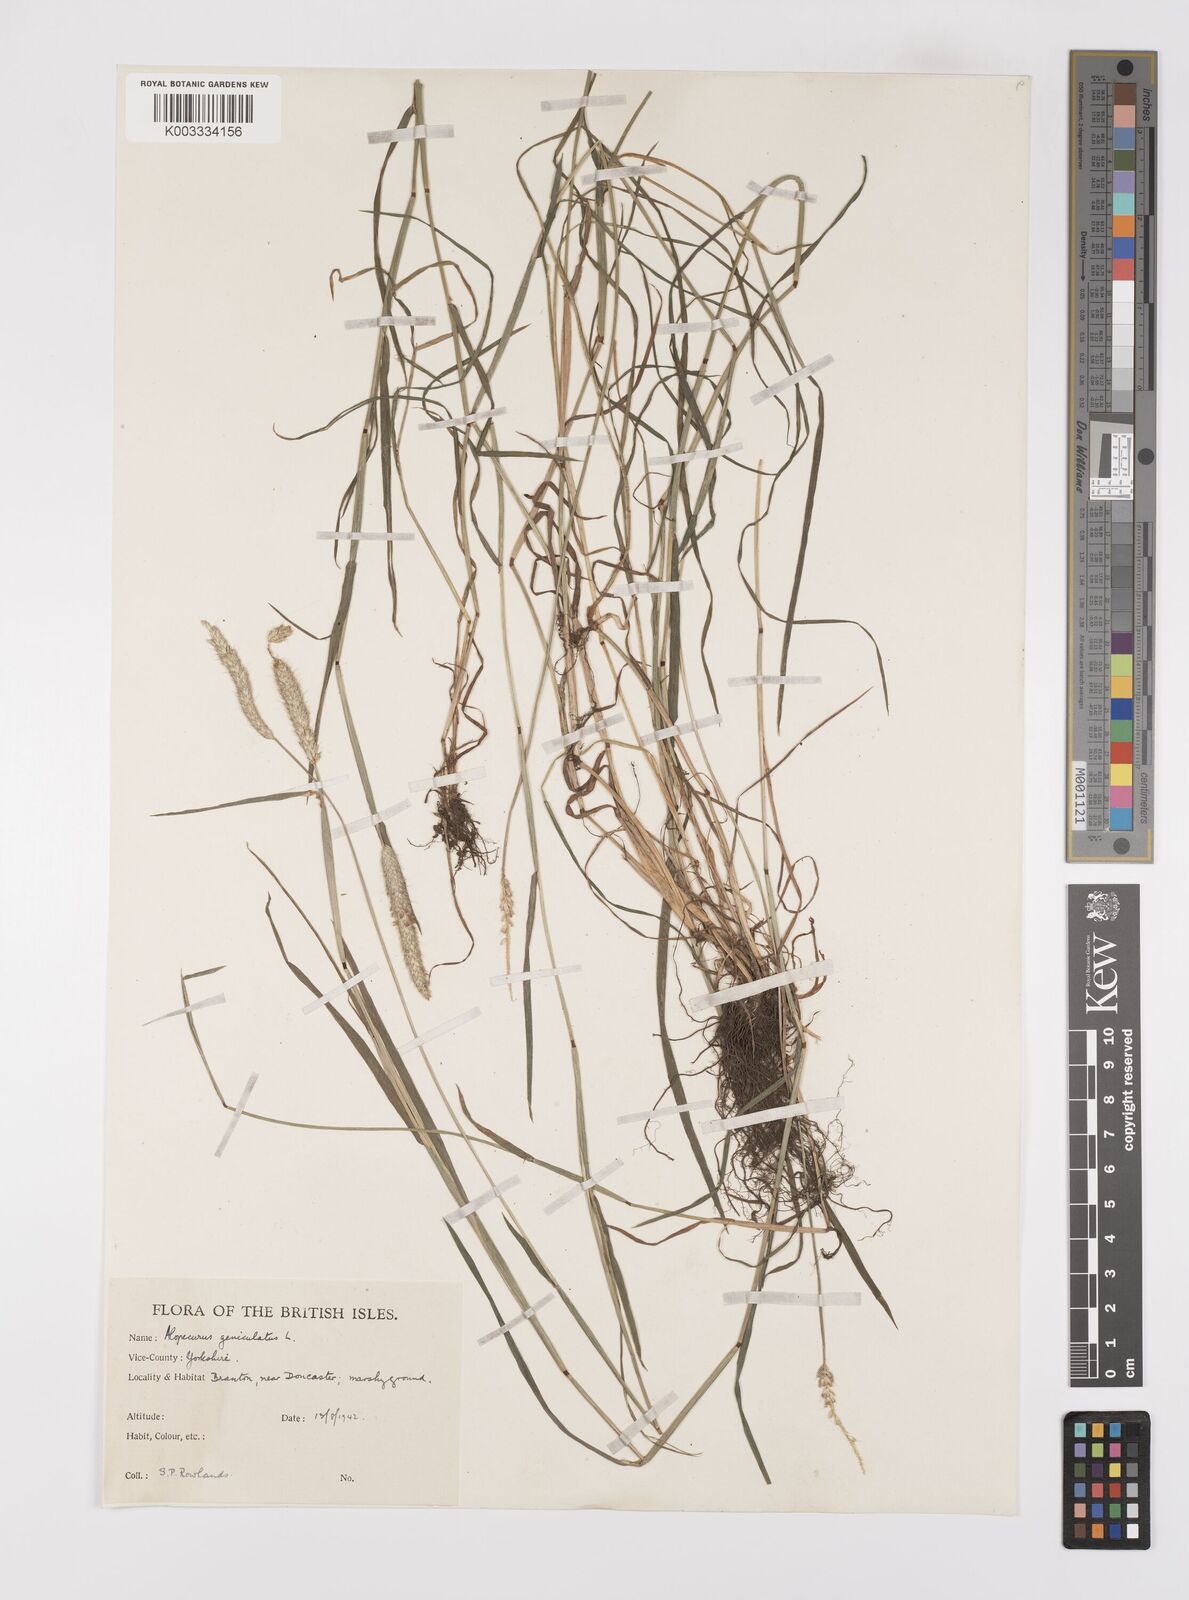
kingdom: Plantae
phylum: Tracheophyta
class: Liliopsida
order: Poales
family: Poaceae
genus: Alopecurus
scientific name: Alopecurus geniculatus
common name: Water foxtail
